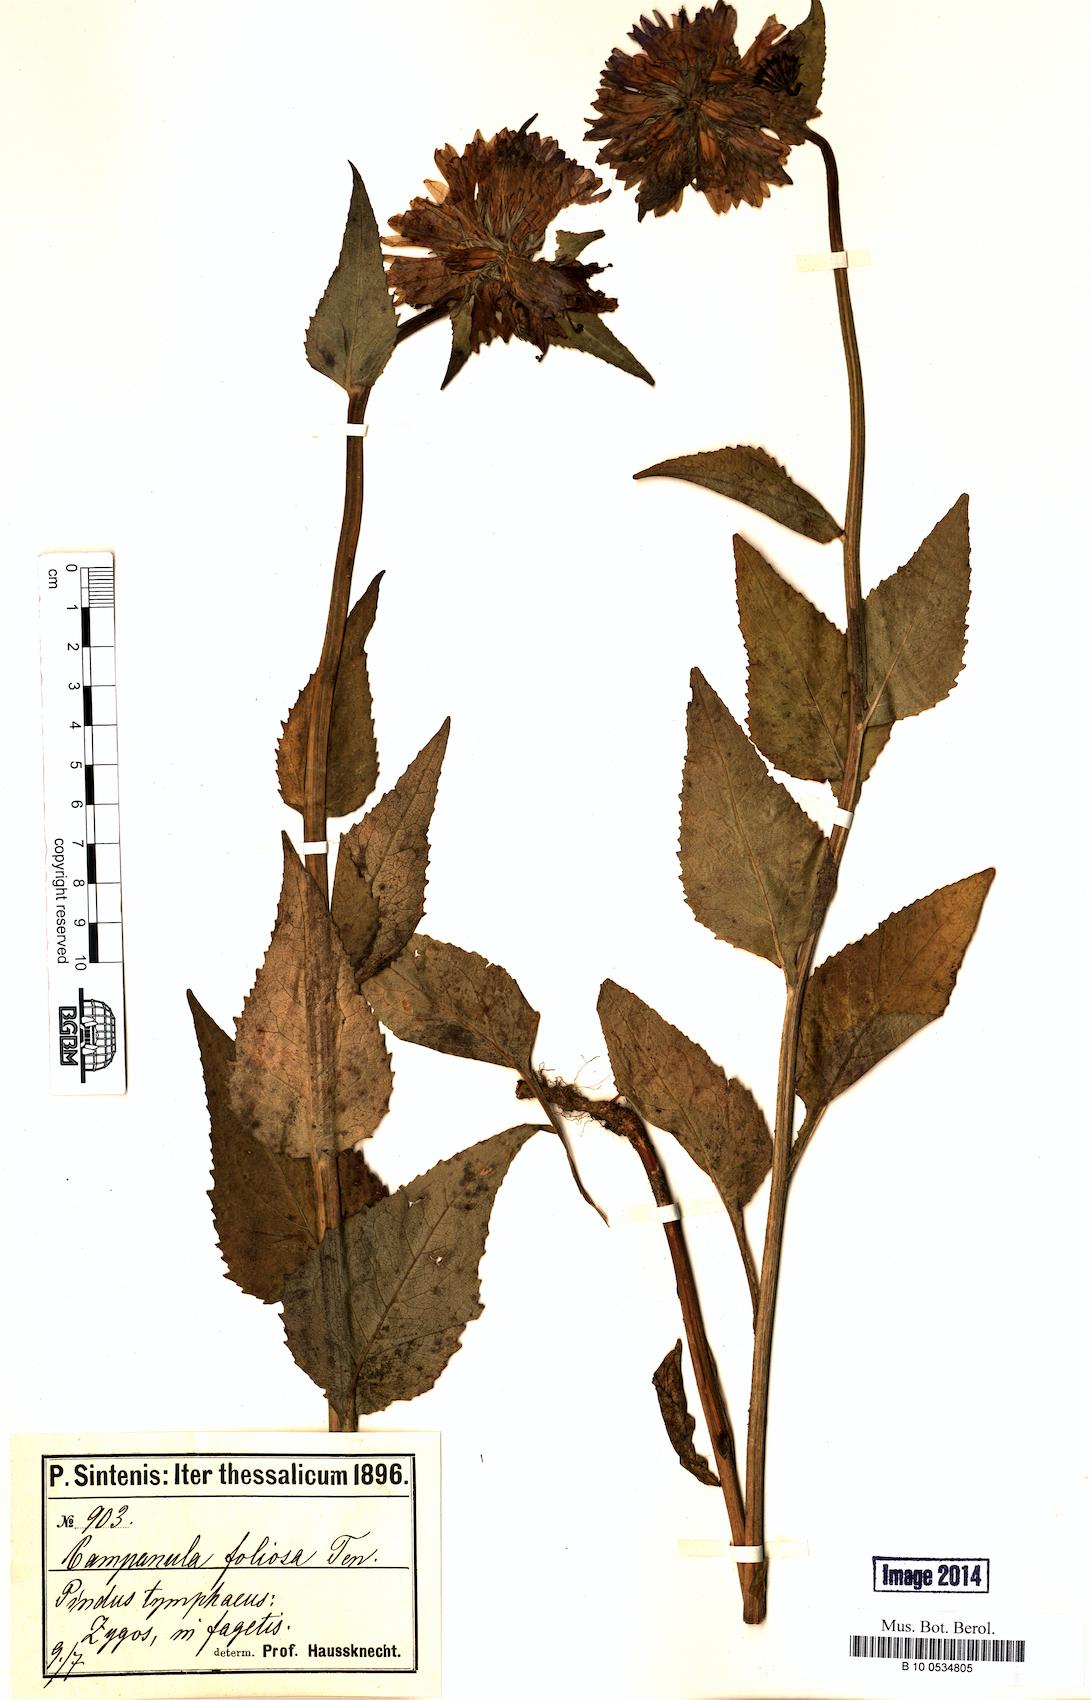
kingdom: Plantae
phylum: Tracheophyta
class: Magnoliopsida
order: Asterales
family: Campanulaceae
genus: Campanula
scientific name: Campanula foliosa
